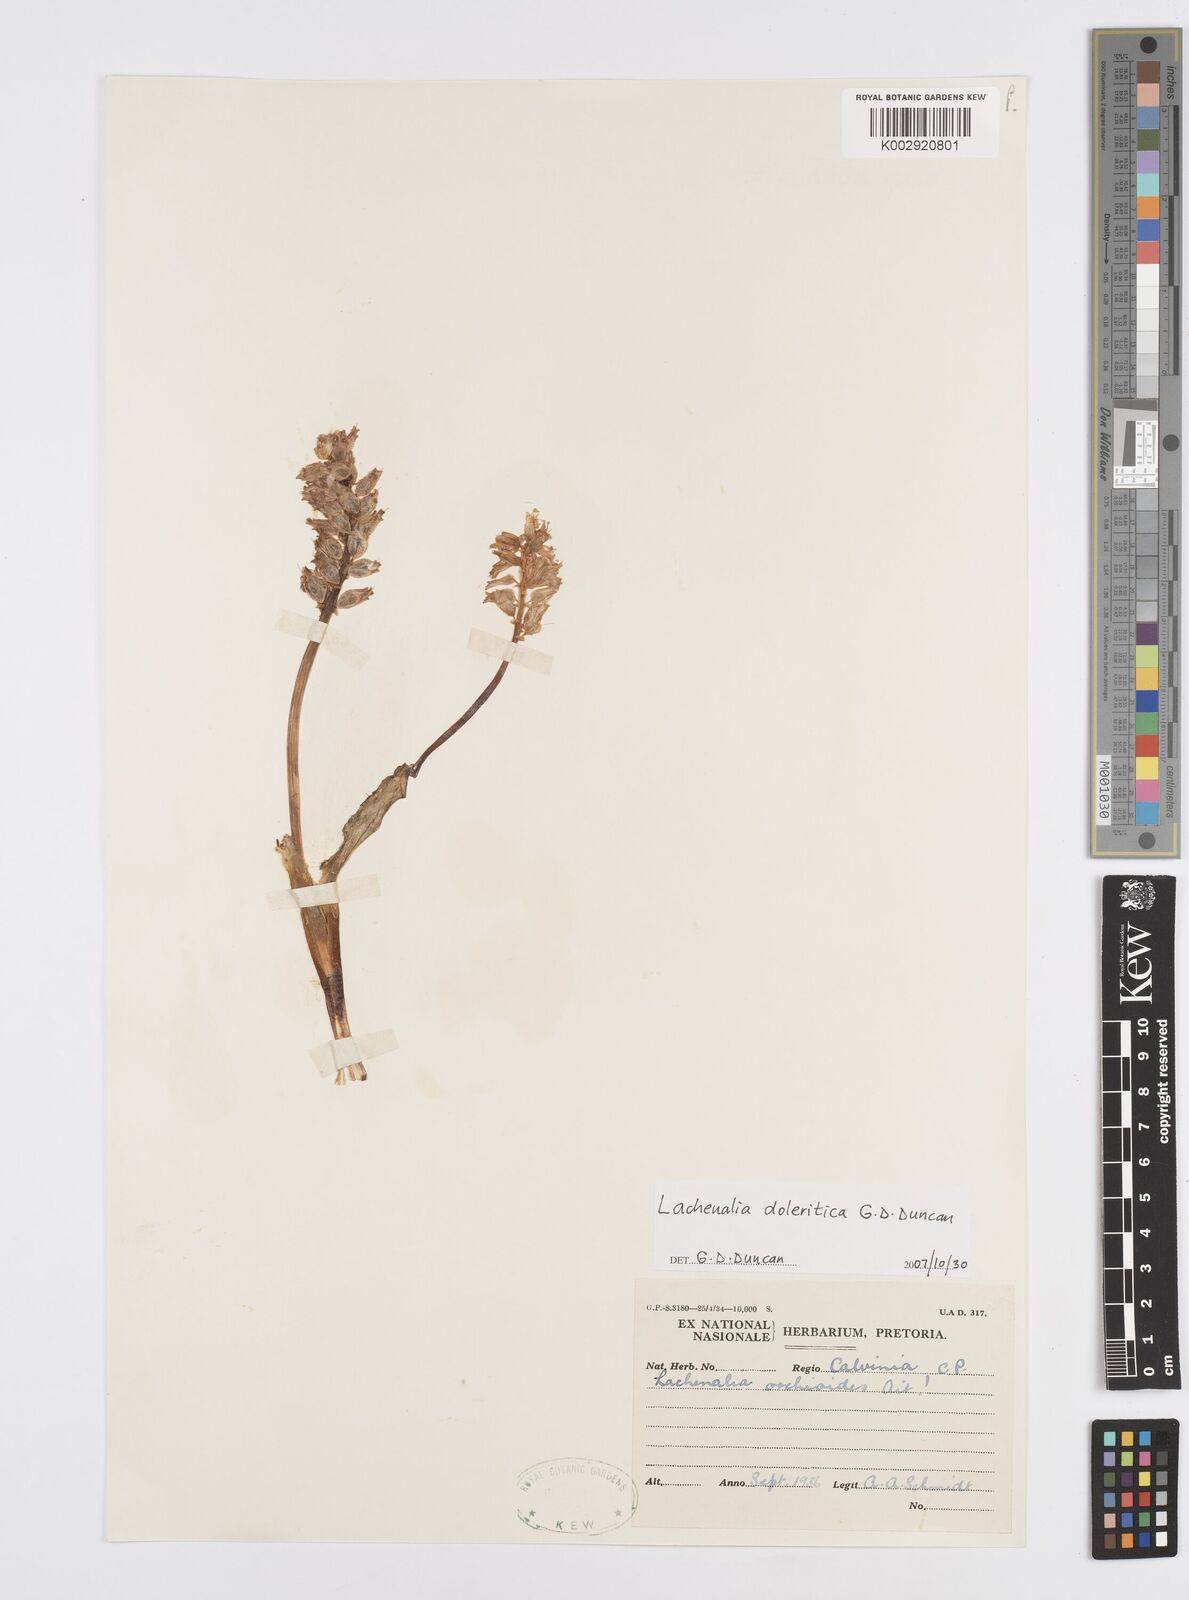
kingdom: Plantae
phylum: Tracheophyta
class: Liliopsida
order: Asparagales
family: Asparagaceae
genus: Lachenalia
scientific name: Lachenalia doleritica
